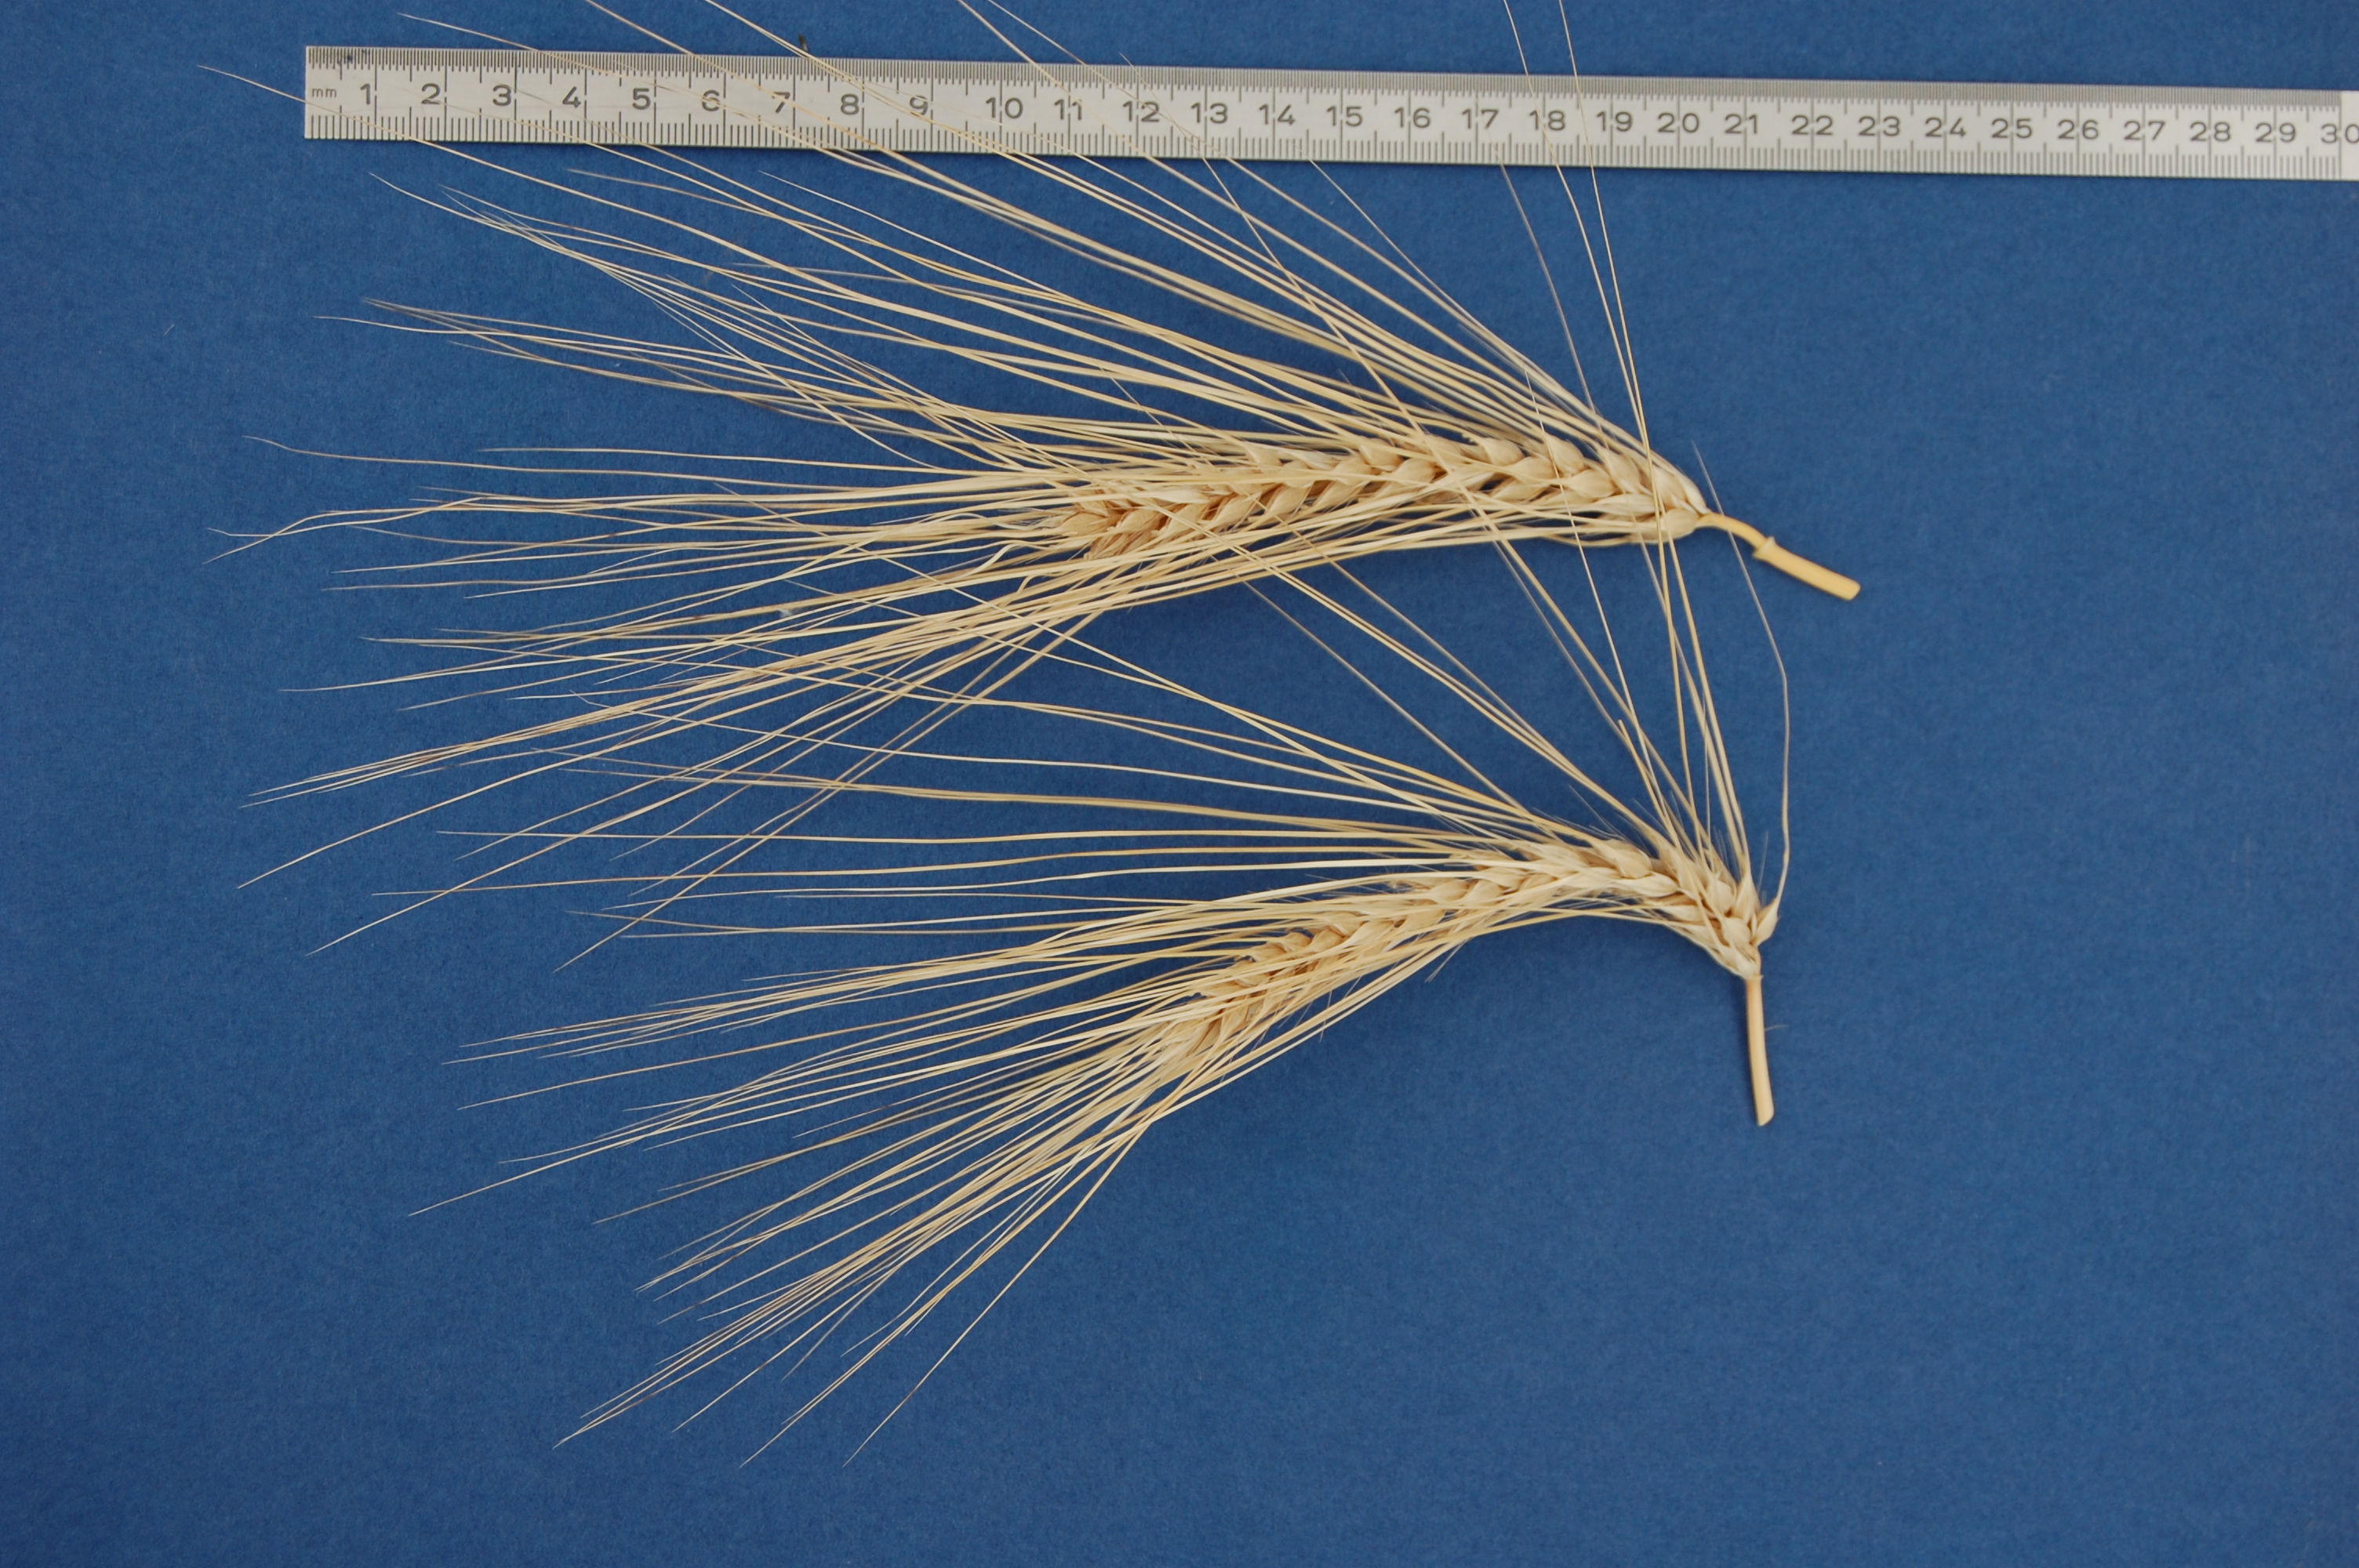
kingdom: Plantae
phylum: Tracheophyta
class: Liliopsida
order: Poales
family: Poaceae
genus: Hordeum
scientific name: Hordeum vulgare
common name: Common barley
